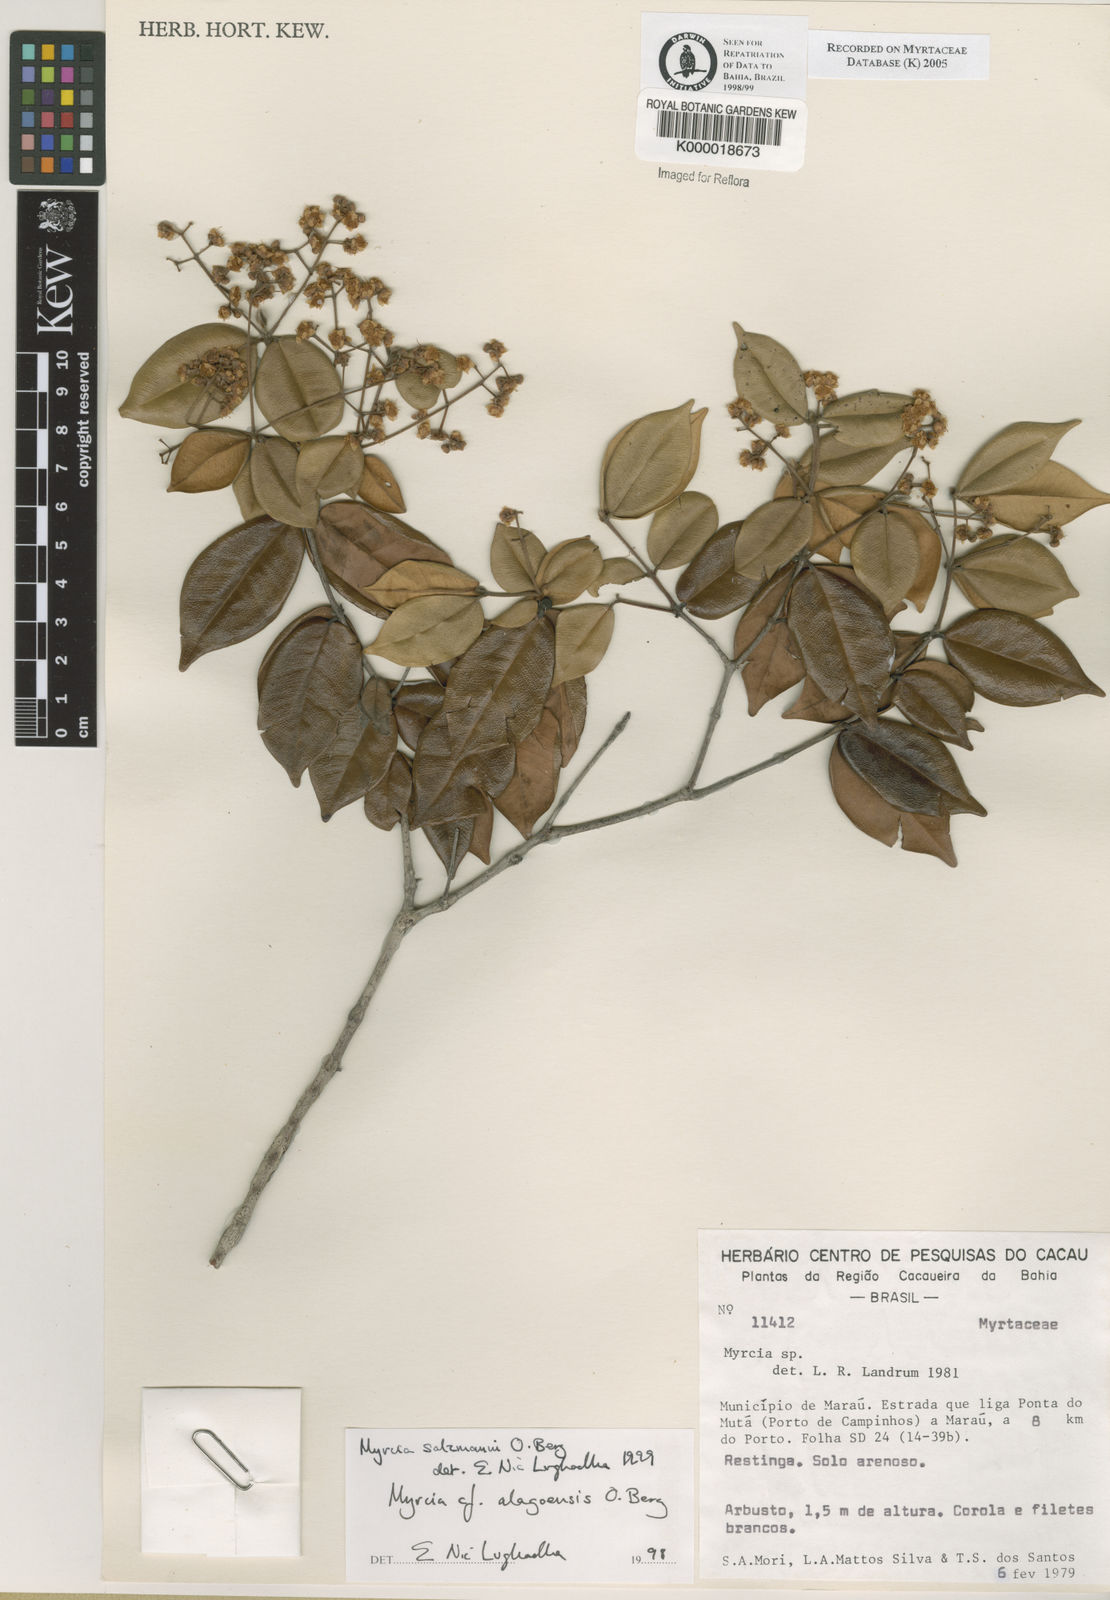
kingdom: Plantae
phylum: Tracheophyta
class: Magnoliopsida
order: Myrtales
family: Myrtaceae
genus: Myrcia
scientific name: Myrcia salzmannii
